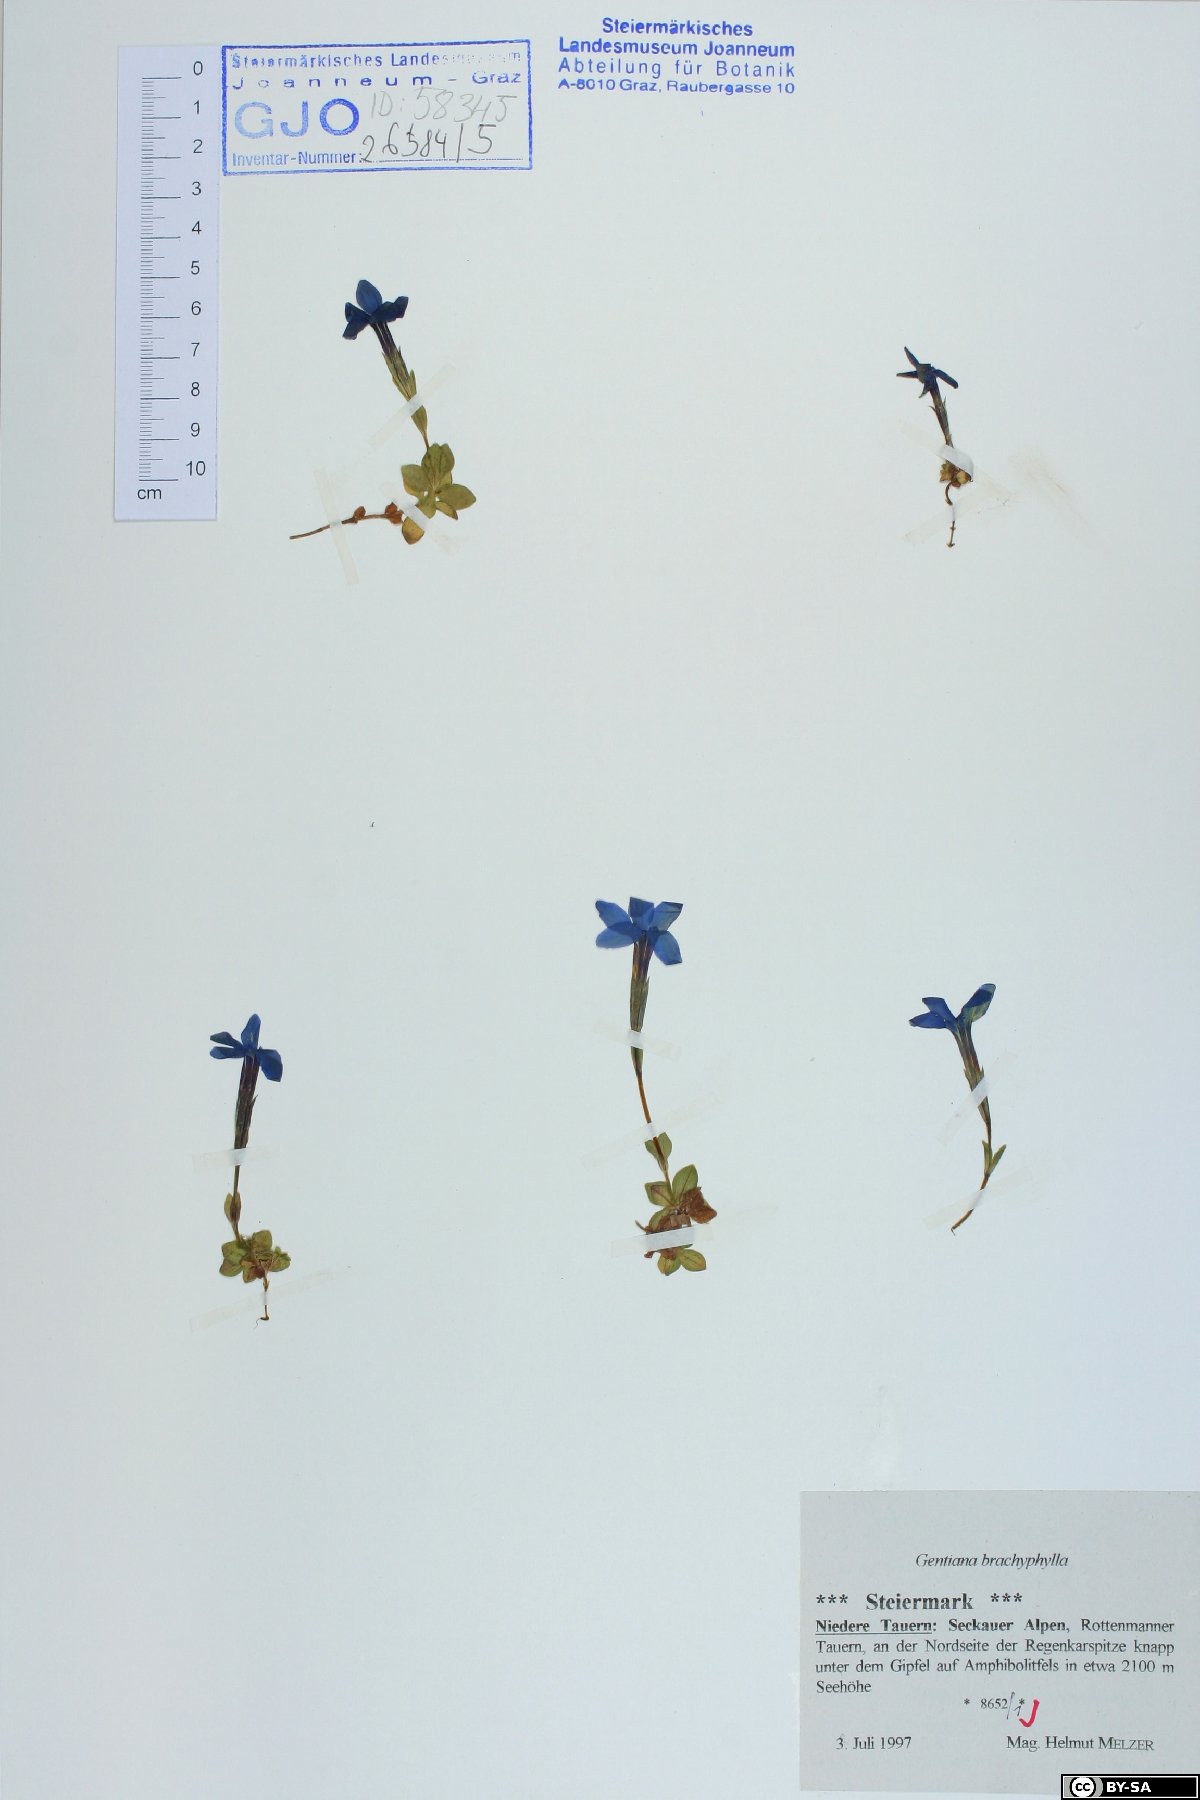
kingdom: Plantae
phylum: Tracheophyta
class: Magnoliopsida
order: Gentianales
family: Gentianaceae
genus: Gentiana
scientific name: Gentiana brachyphylla
